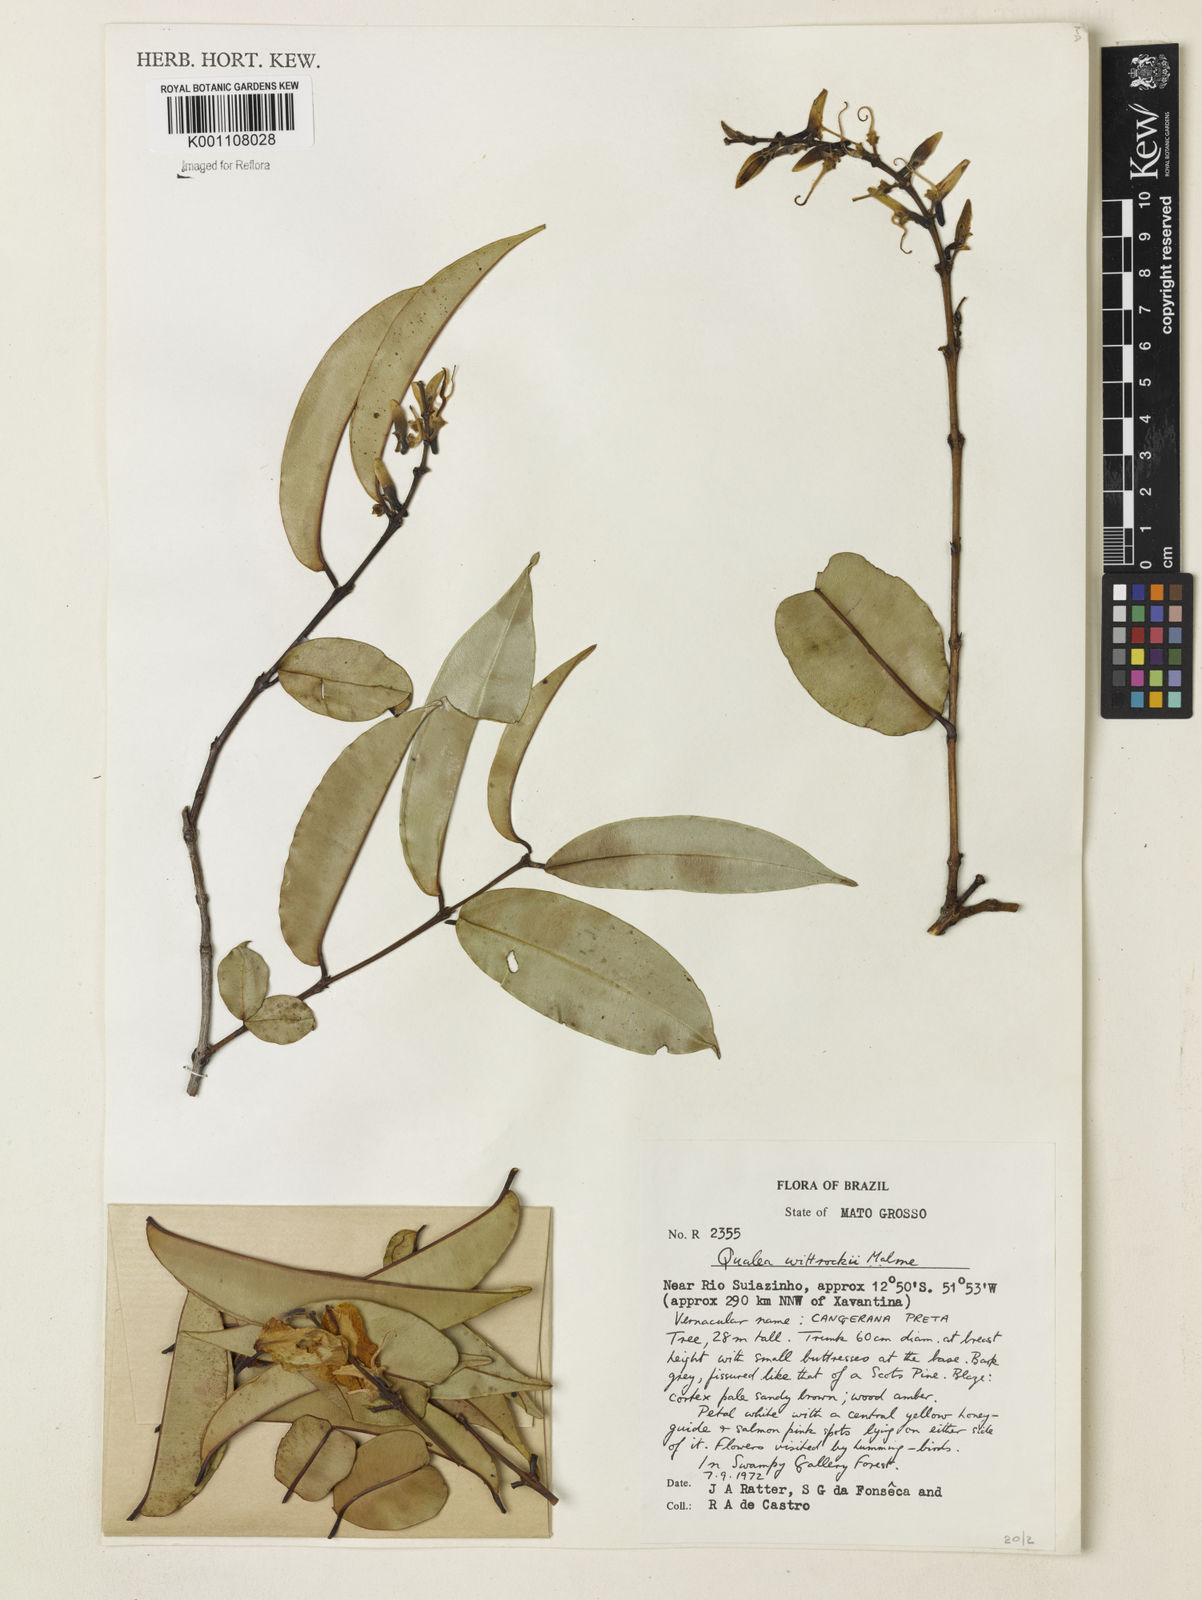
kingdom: Plantae
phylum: Tracheophyta
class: Magnoliopsida
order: Myrtales
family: Vochysiaceae
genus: Ruizterania
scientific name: Ruizterania wittrockii
